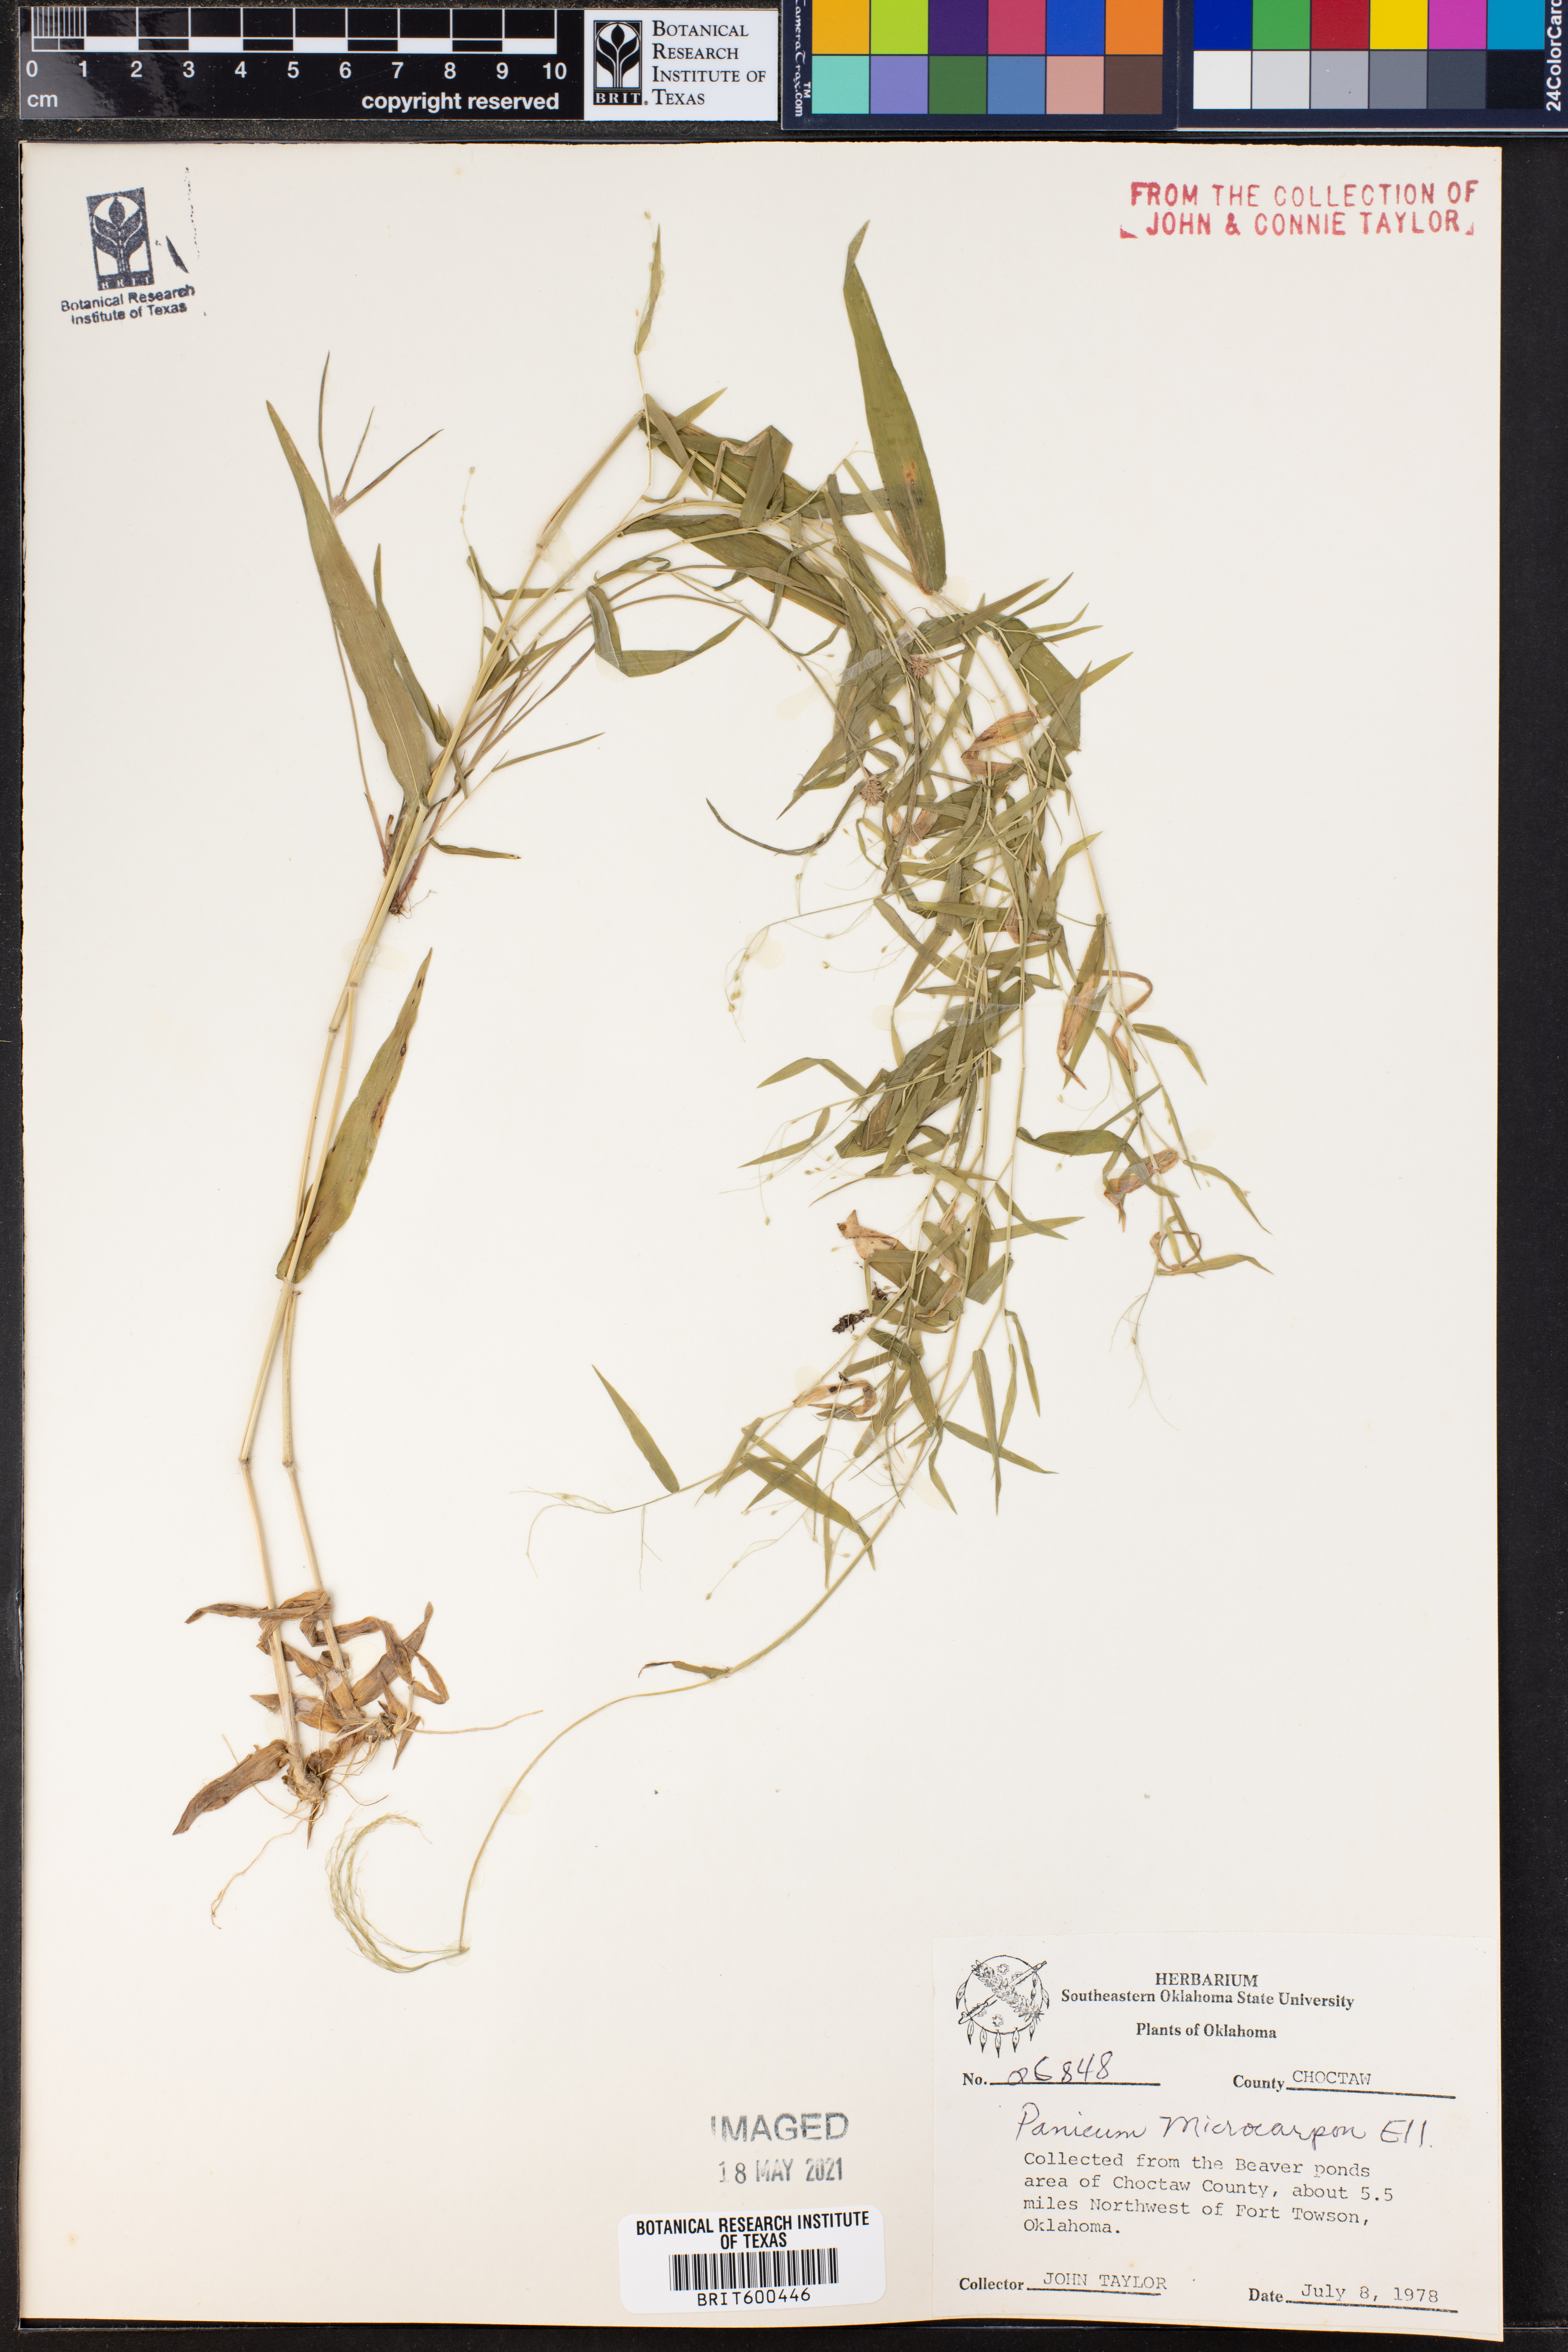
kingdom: Plantae
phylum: Tracheophyta
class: Liliopsida
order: Poales
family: Poaceae
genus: Dichanthelium
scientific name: Dichanthelium polyanthes
